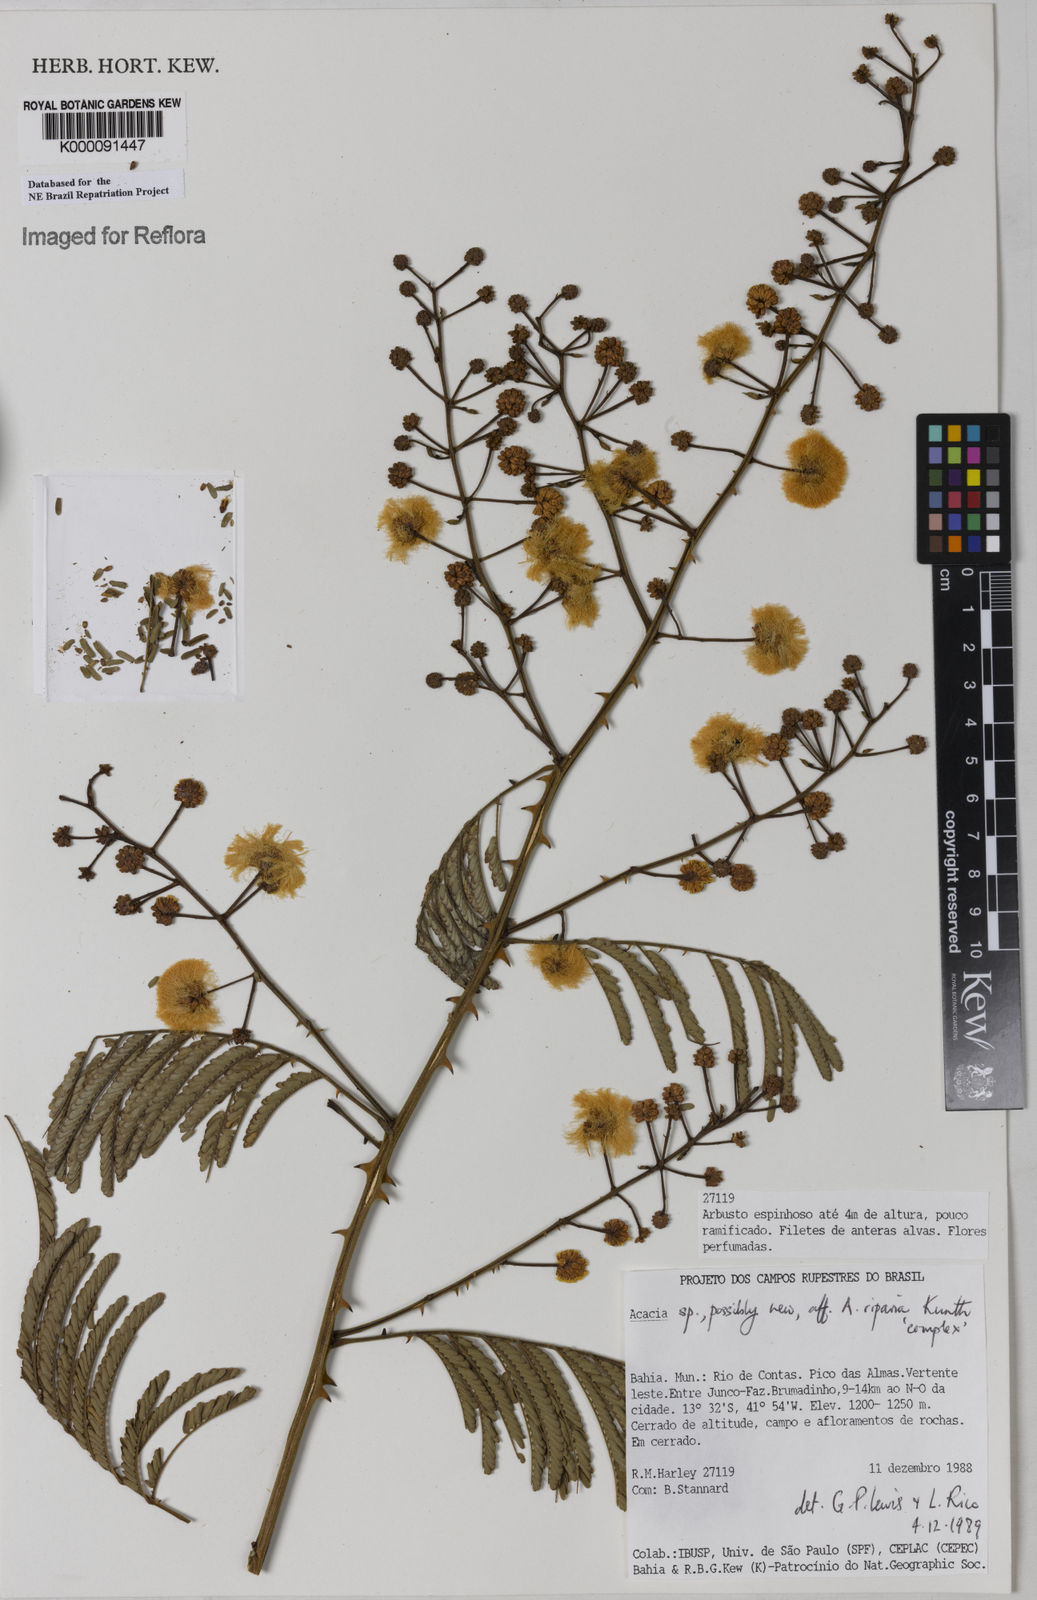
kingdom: Plantae
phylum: Tracheophyta
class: Magnoliopsida
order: Fabales
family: Fabaceae
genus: Senegalia
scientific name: Senegalia riparia
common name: Catch-and-keep
